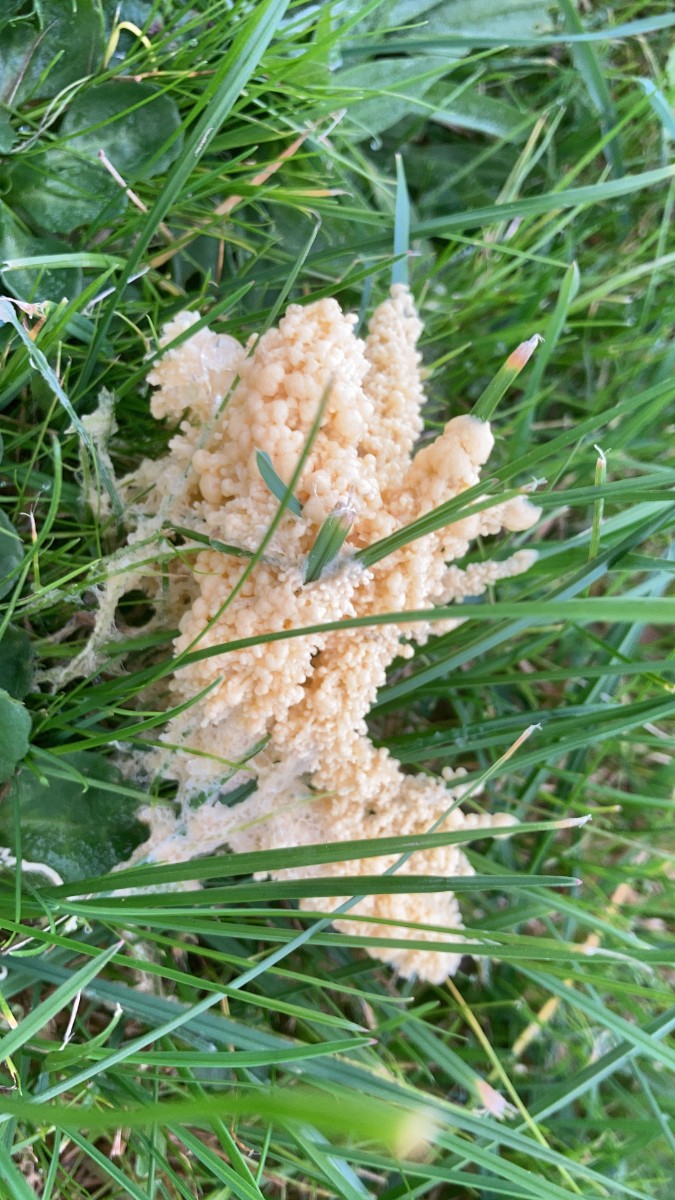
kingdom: Protozoa
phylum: Mycetozoa
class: Myxomycetes
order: Physarales
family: Physaraceae
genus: Didymium
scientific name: Didymium
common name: urteskum
